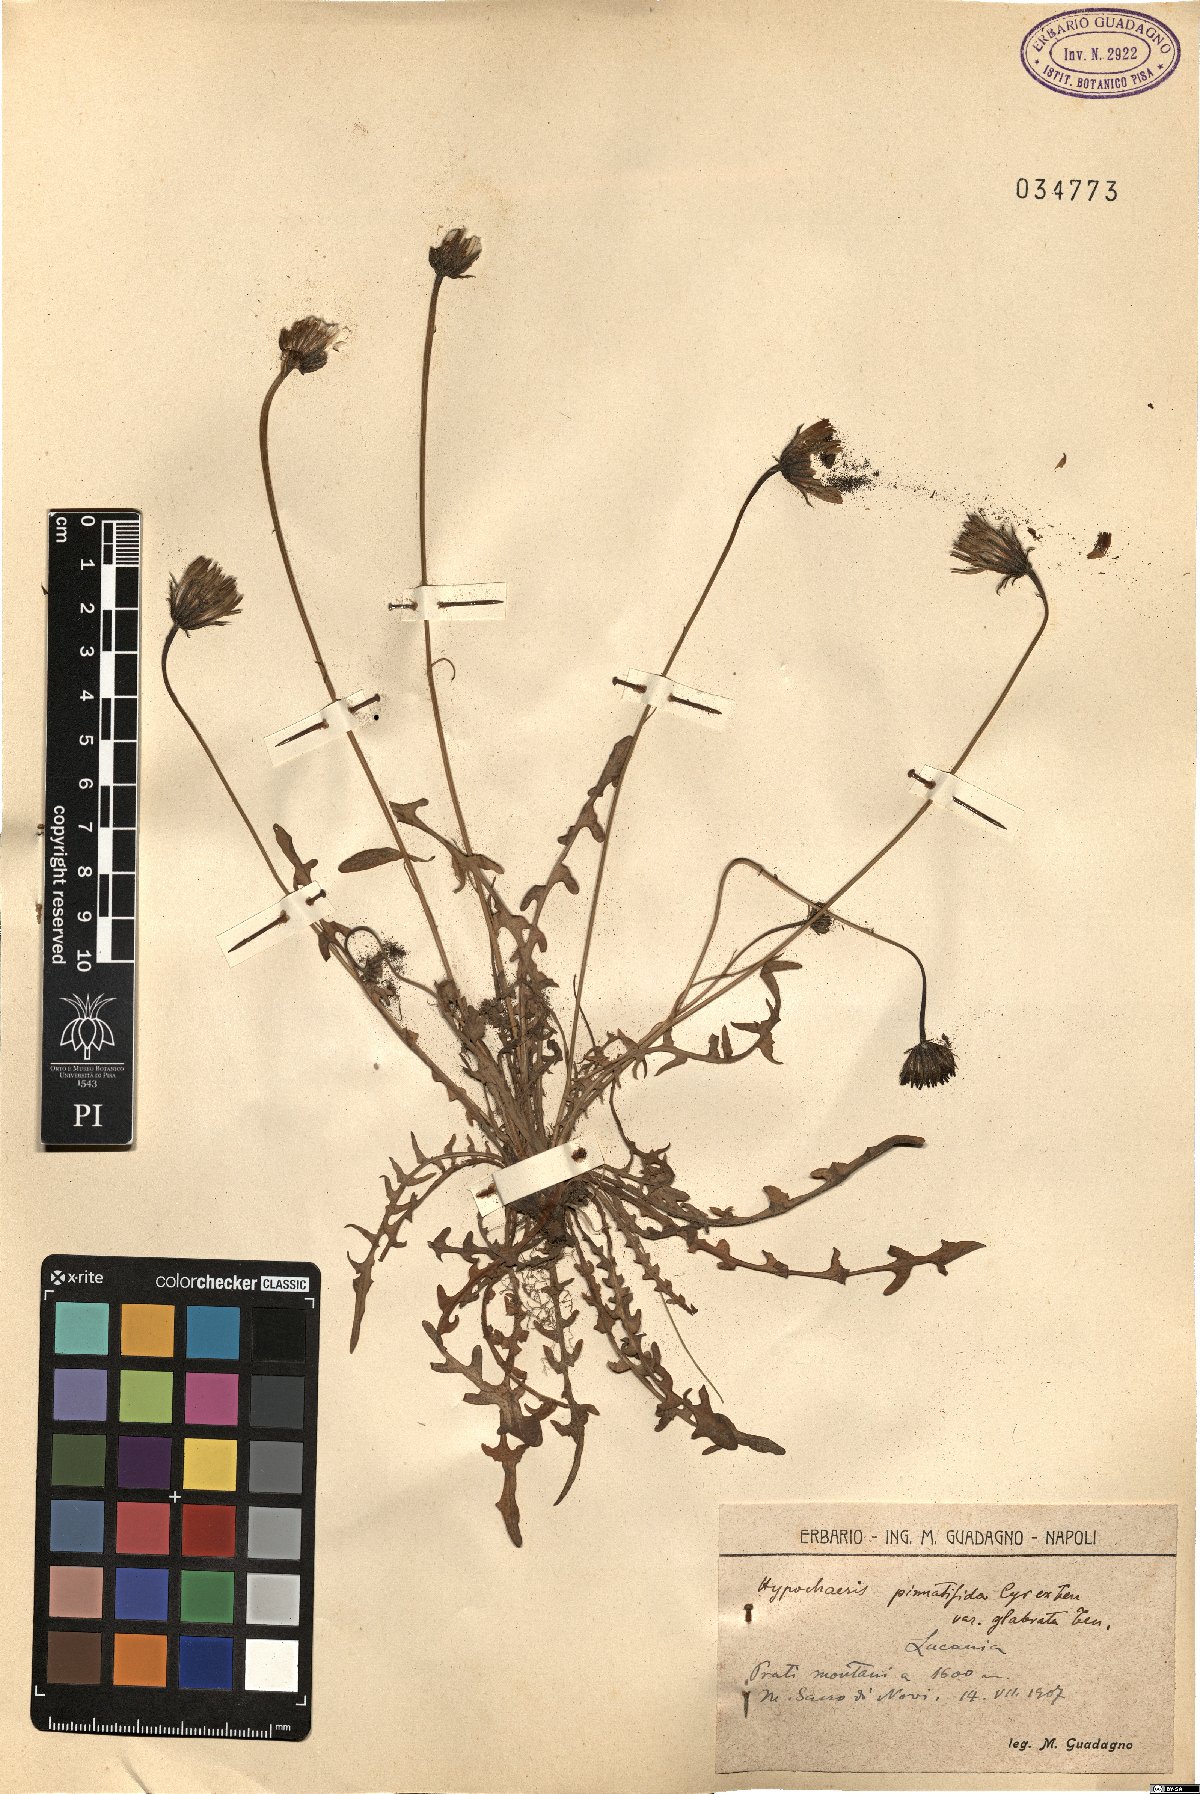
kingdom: Plantae
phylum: Tracheophyta
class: Magnoliopsida
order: Asterales
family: Asteraceae
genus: Hypochaeris
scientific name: Hypochaeris cretensis
